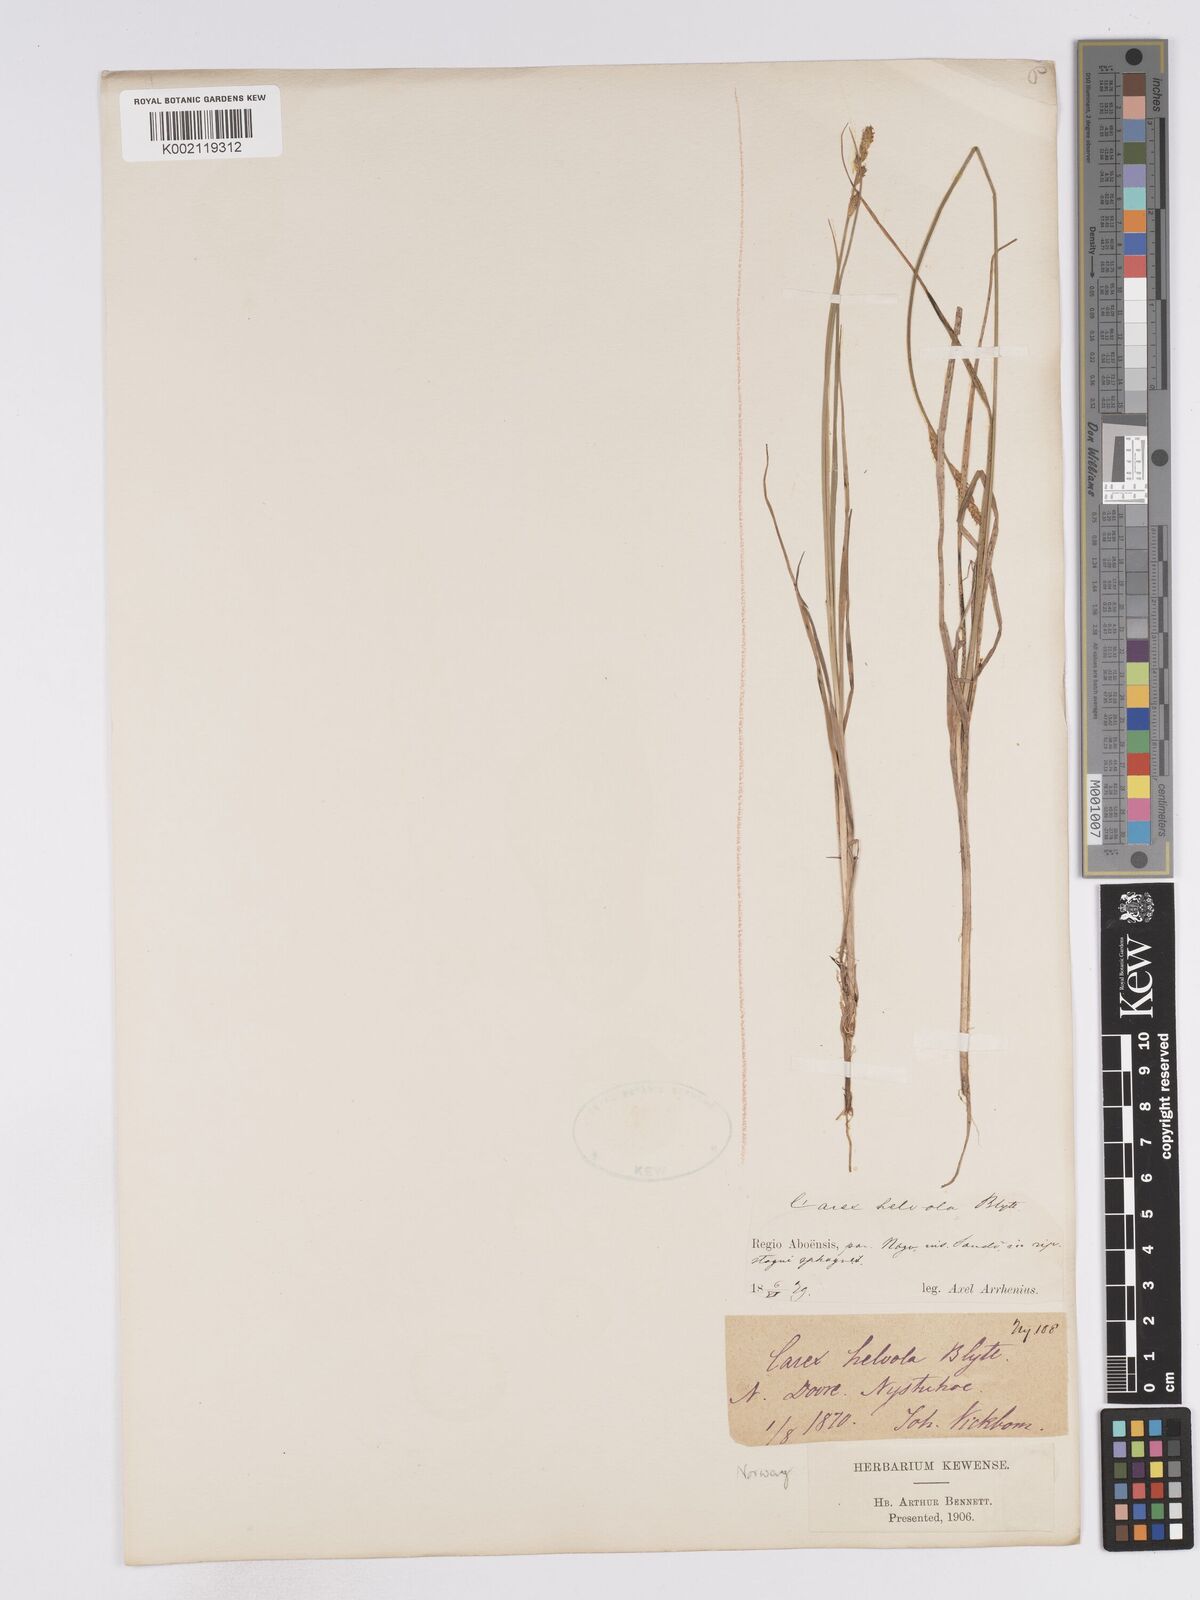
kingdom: Plantae
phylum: Tracheophyta
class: Liliopsida
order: Poales
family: Cyperaceae
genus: Carex
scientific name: Carex
